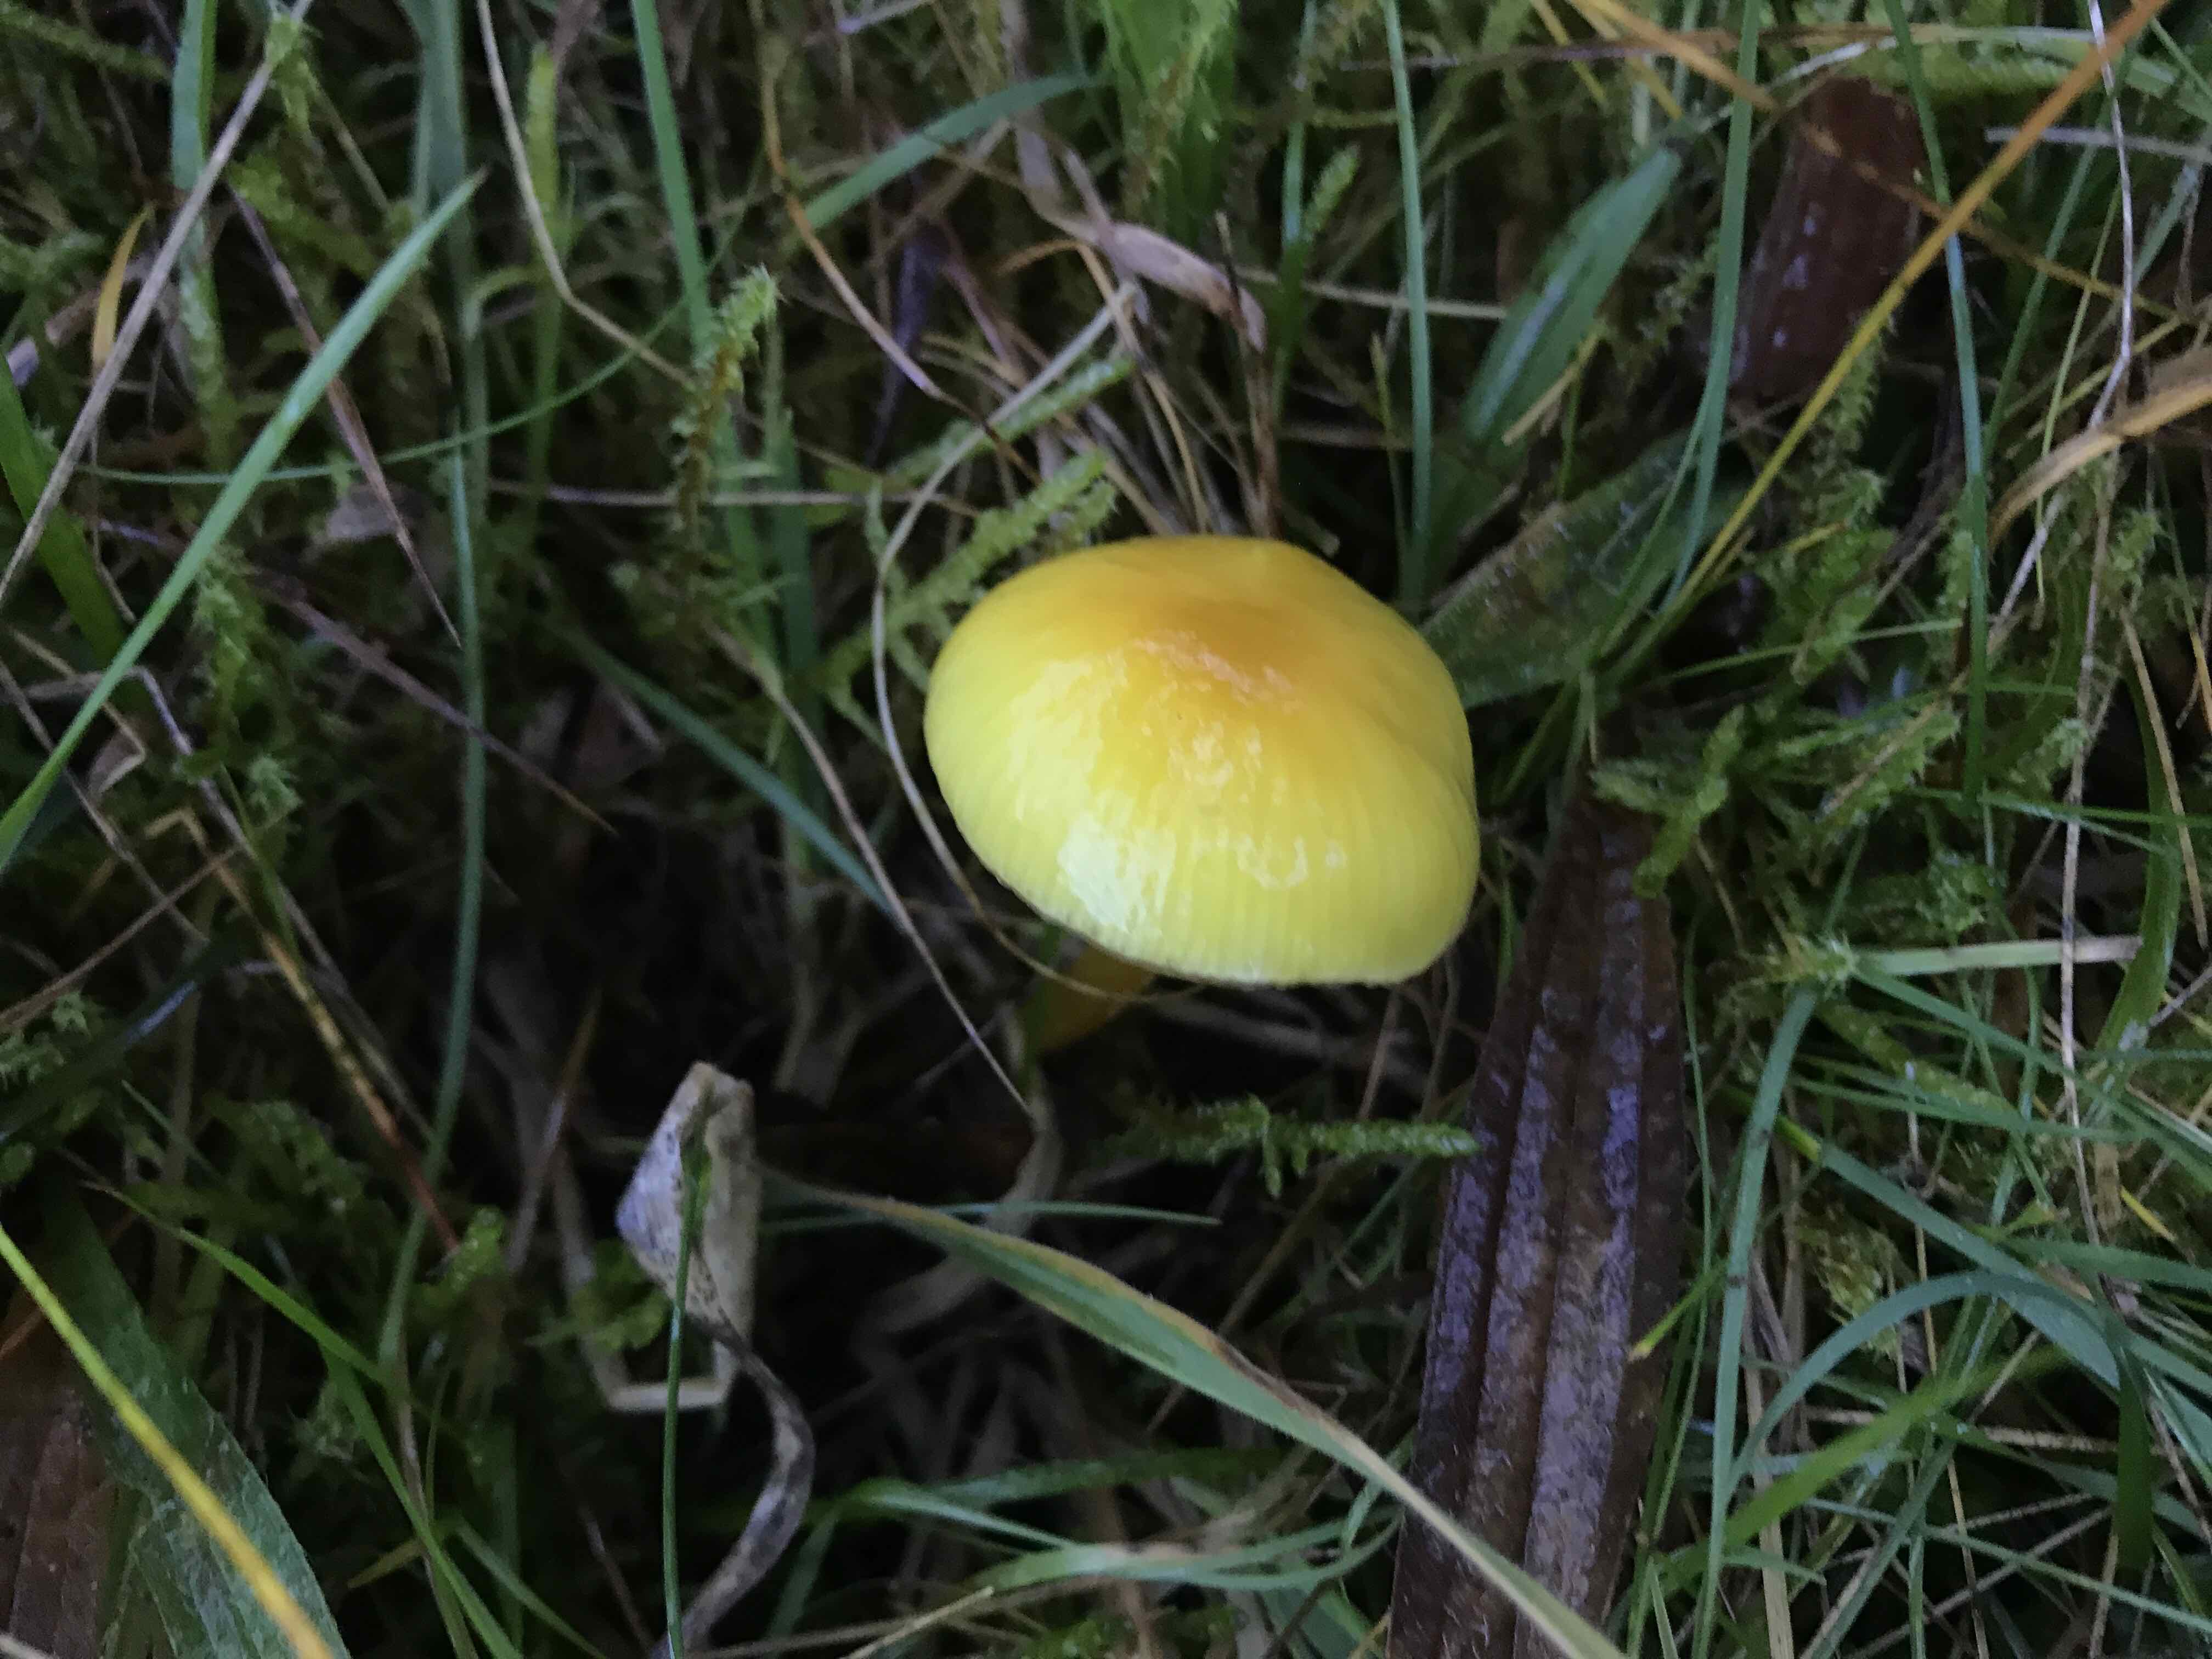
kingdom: Fungi
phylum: Basidiomycota
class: Agaricomycetes
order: Agaricales
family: Hygrophoraceae
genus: Hygrocybe
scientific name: Hygrocybe chlorophana
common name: gul vokshat
